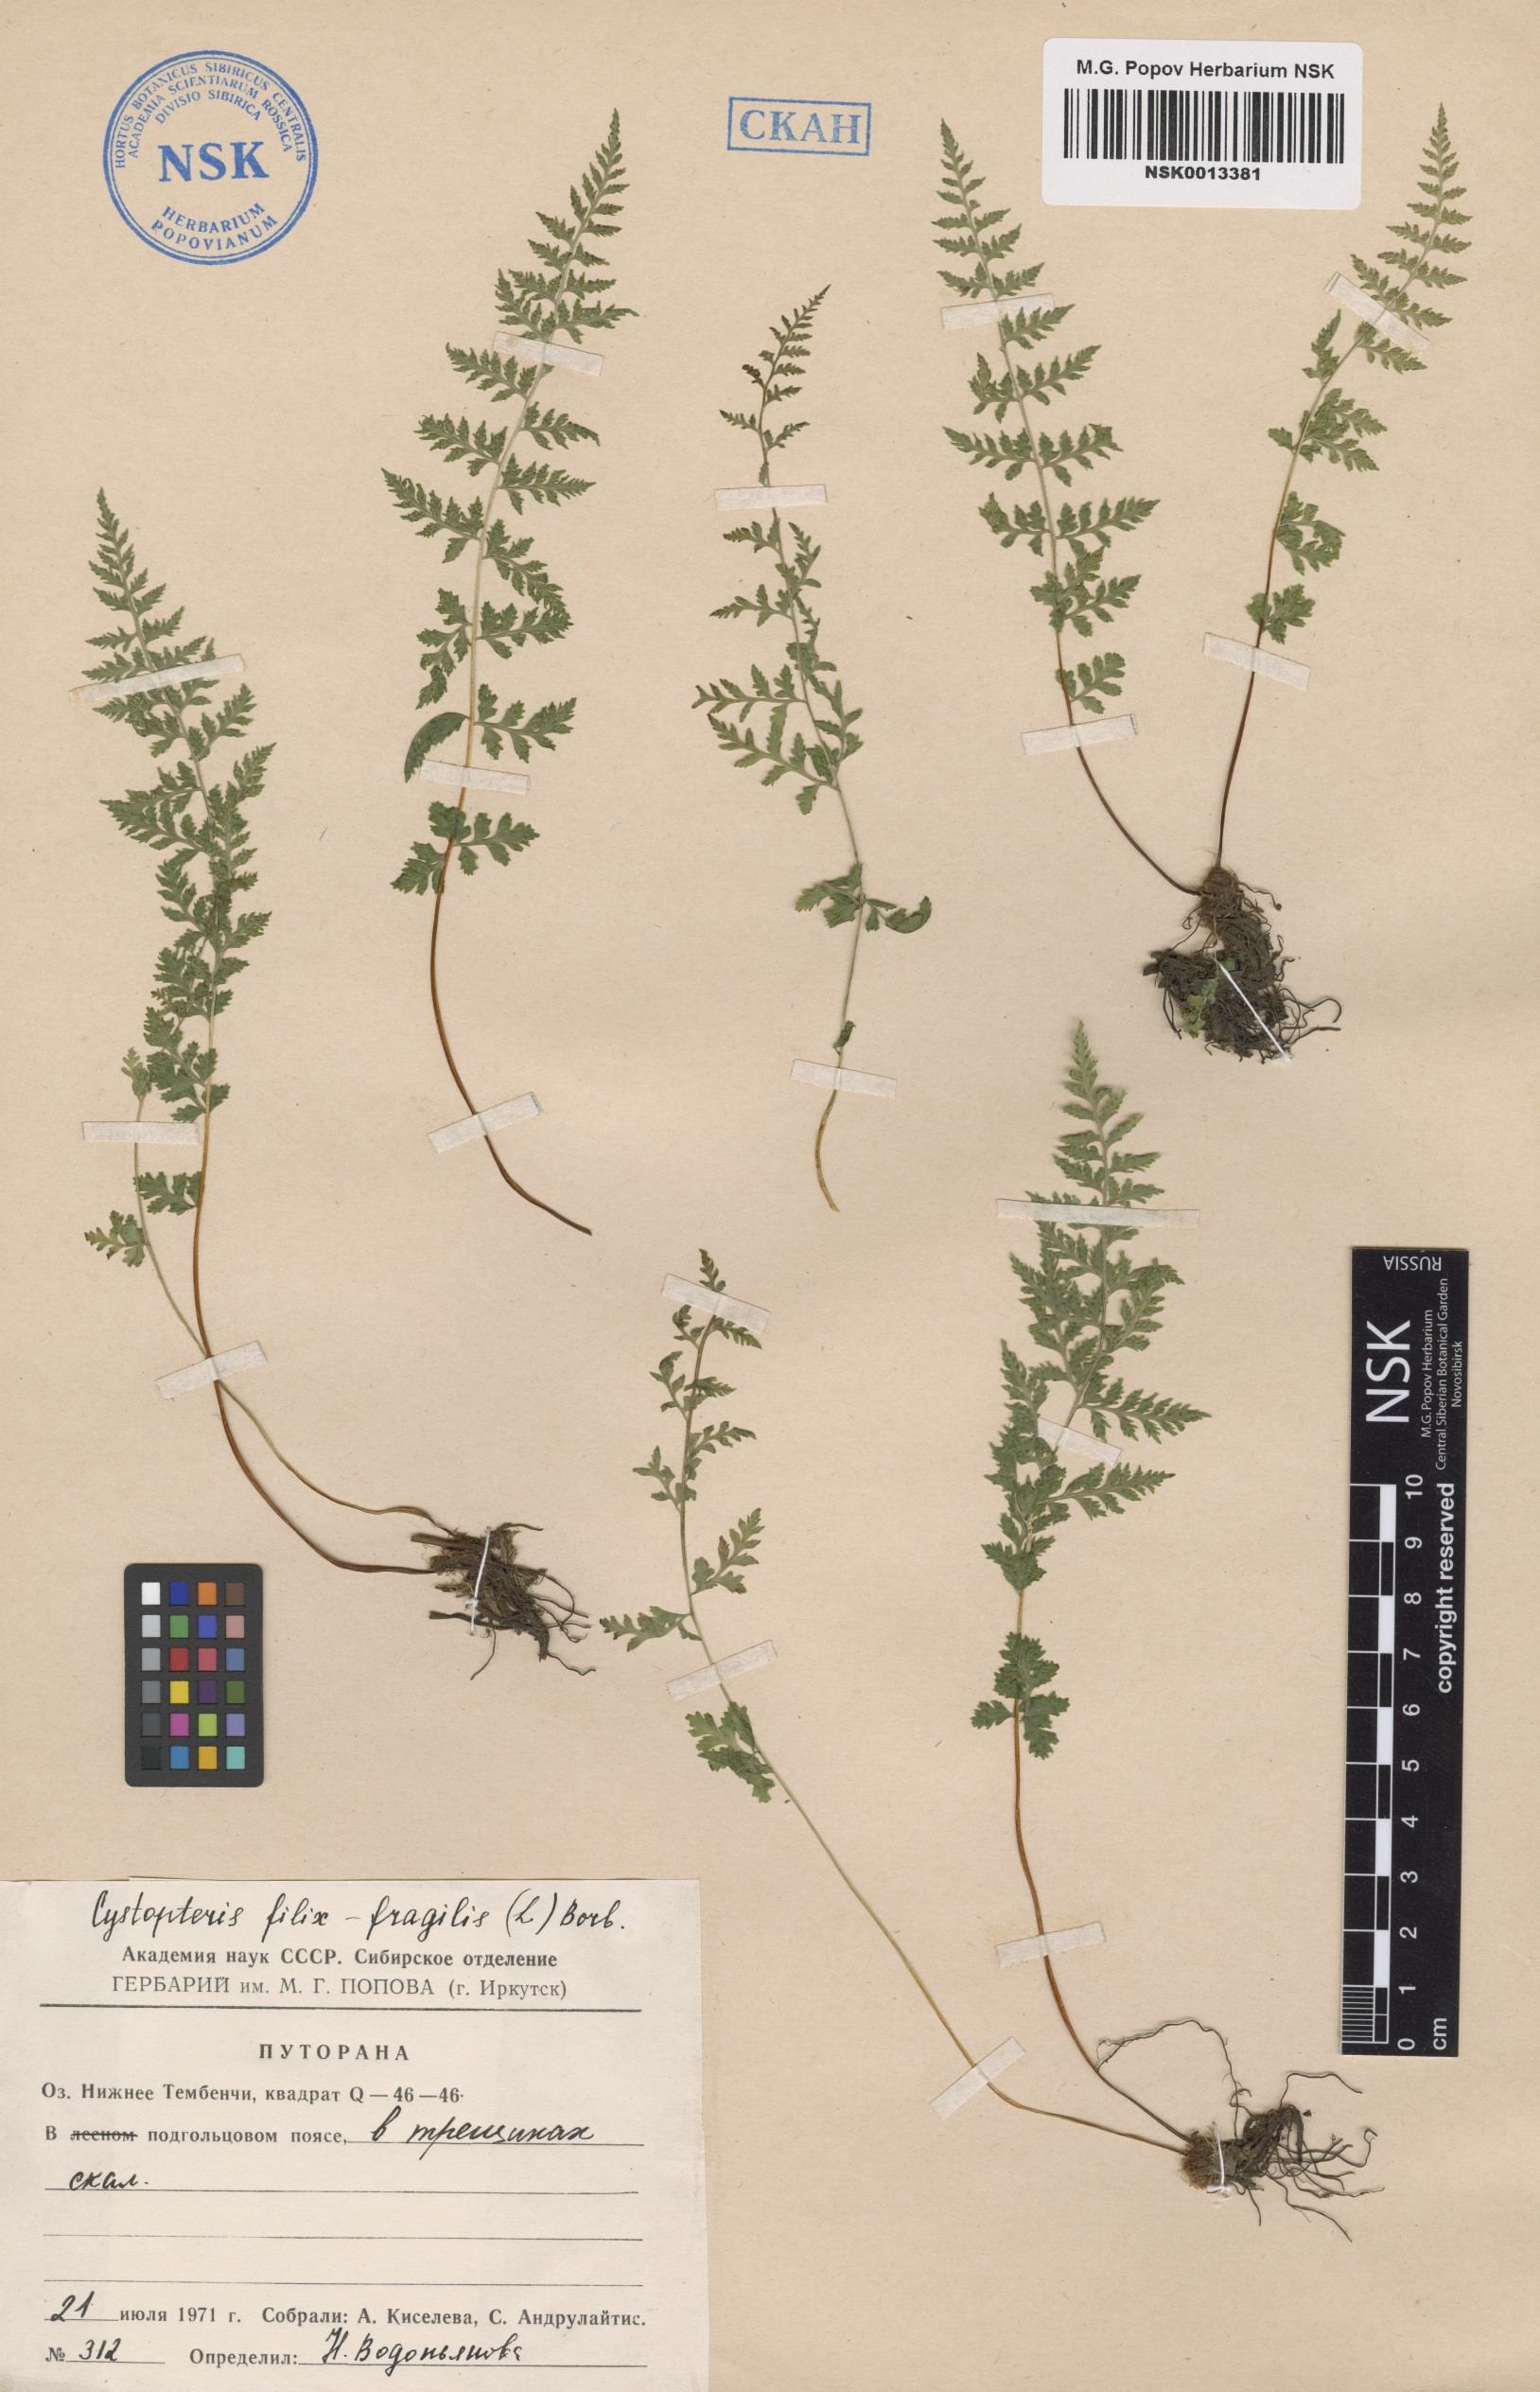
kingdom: Plantae
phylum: Tracheophyta
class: Polypodiopsida
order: Polypodiales
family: Cystopteridaceae
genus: Cystopteris
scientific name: Cystopteris fragilis
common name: Brittle bladder fern
